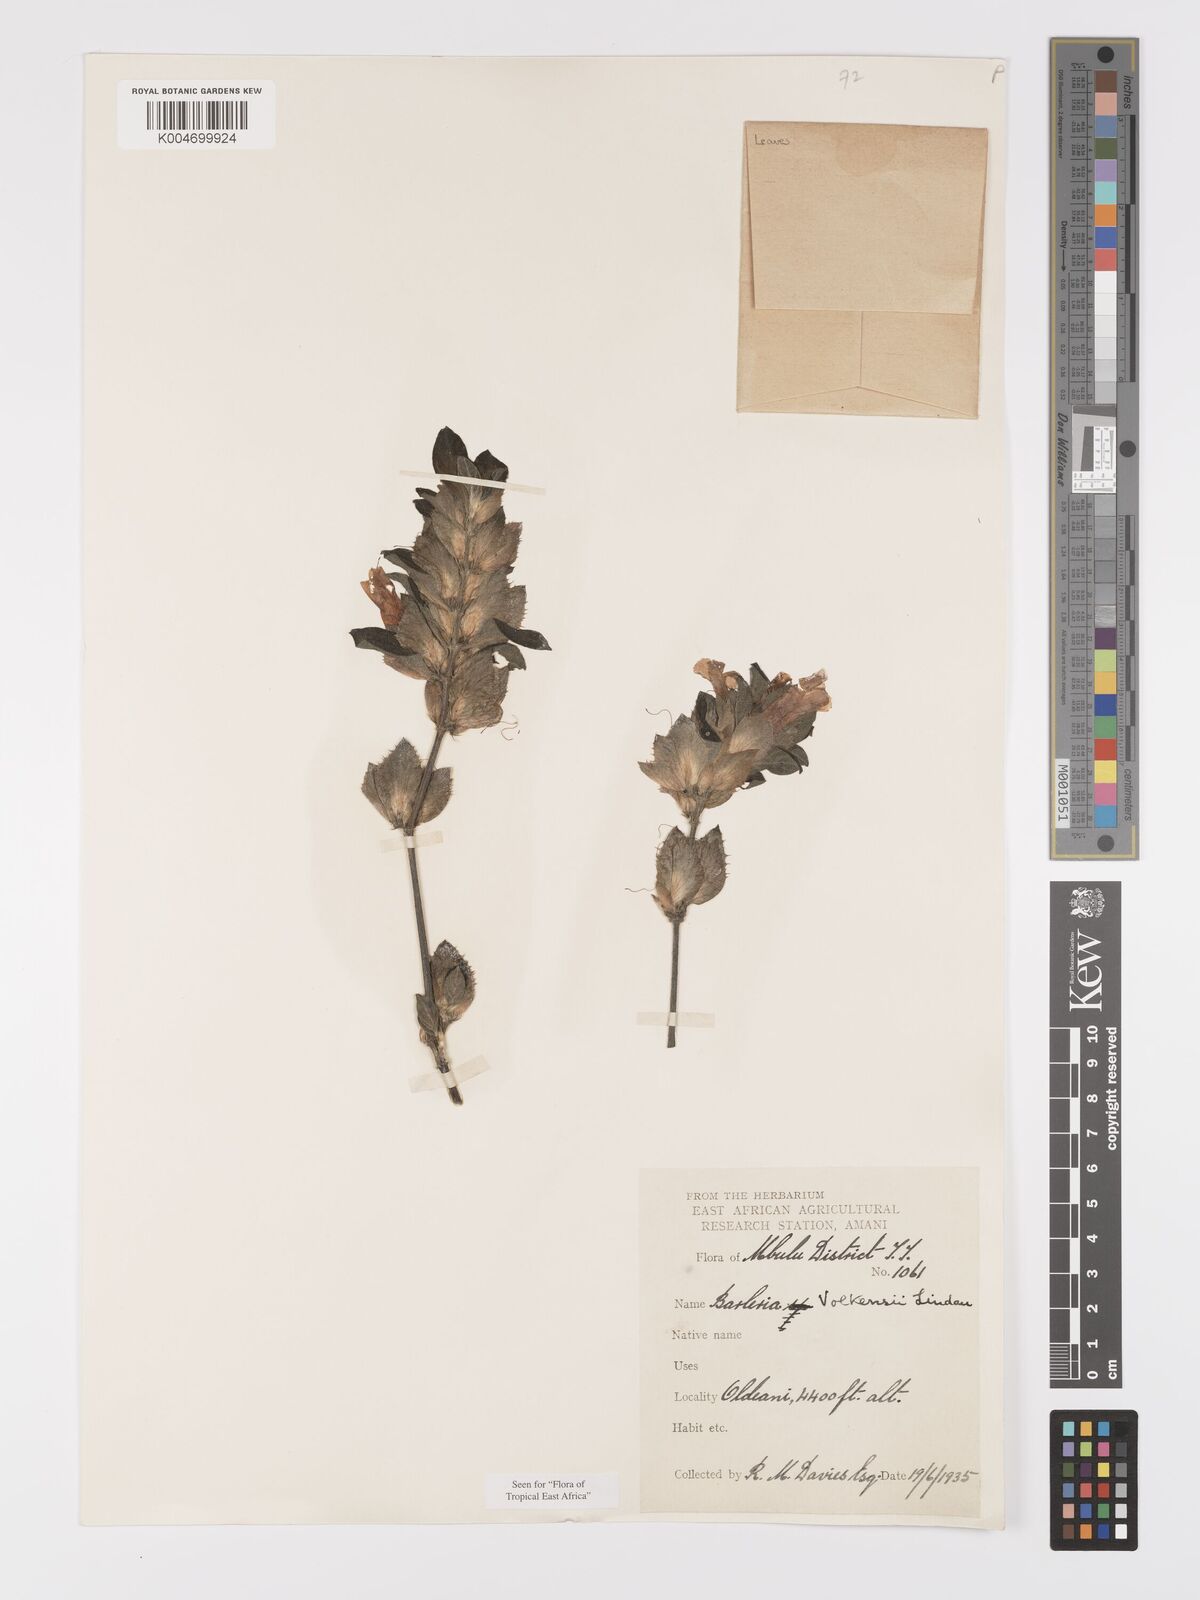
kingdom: Plantae
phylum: Tracheophyta
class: Magnoliopsida
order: Lamiales
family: Acanthaceae
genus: Barleria
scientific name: Barleria volkensii
